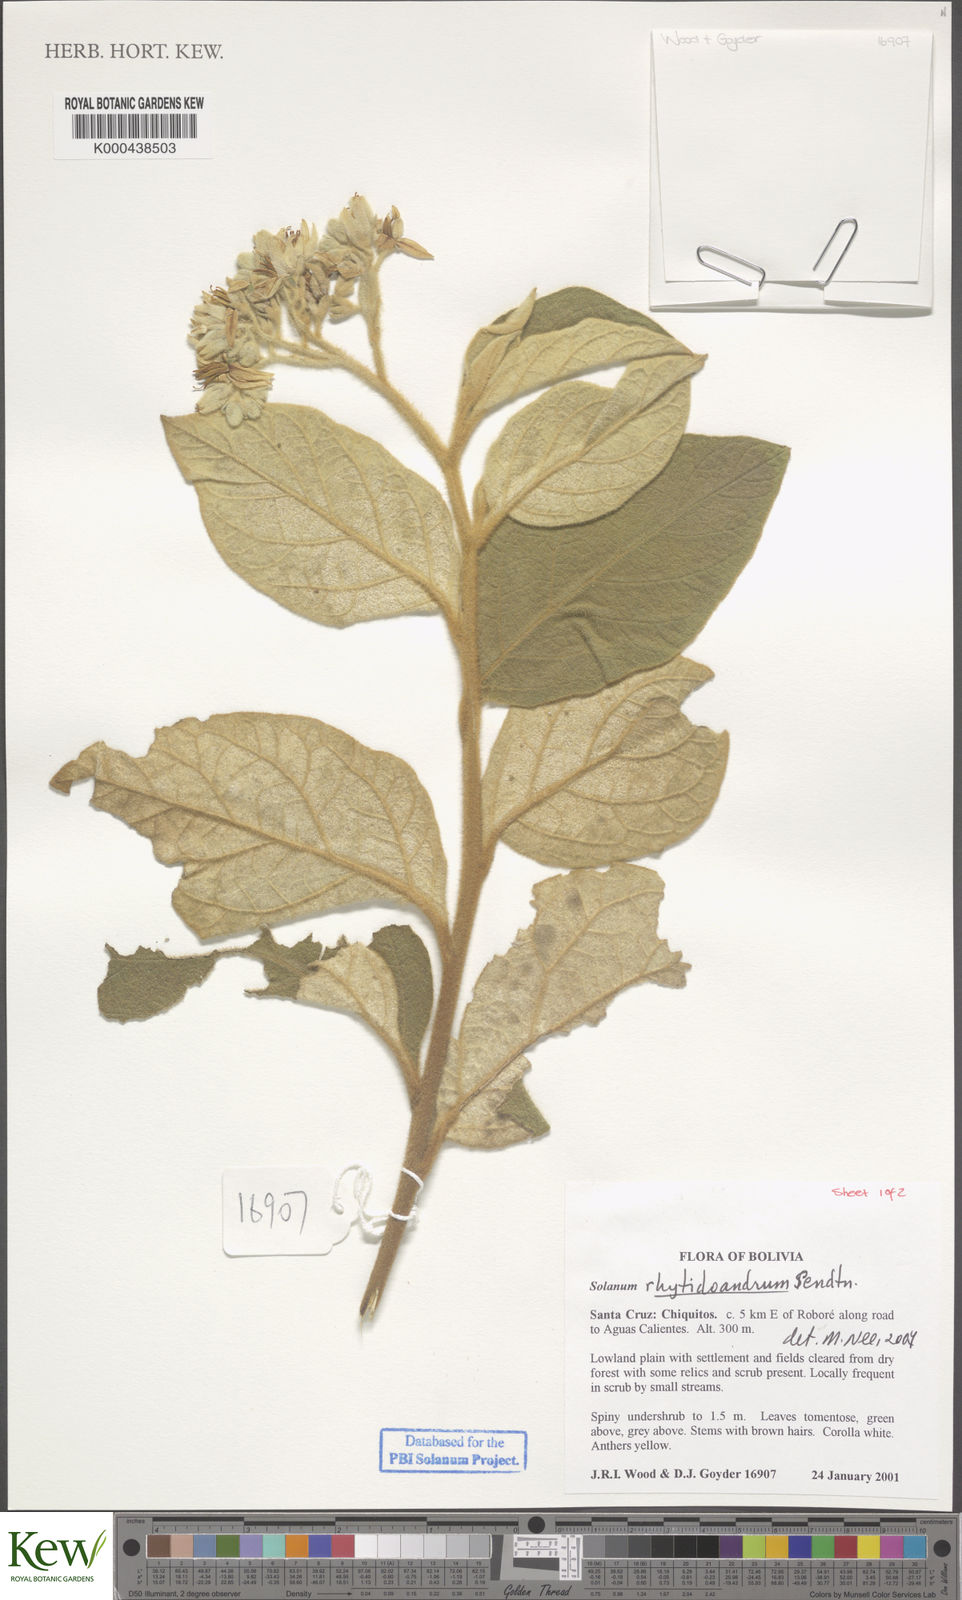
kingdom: Plantae
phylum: Tracheophyta
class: Magnoliopsida
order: Solanales
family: Solanaceae
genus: Solanum
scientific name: Solanum rhytidoandrum
